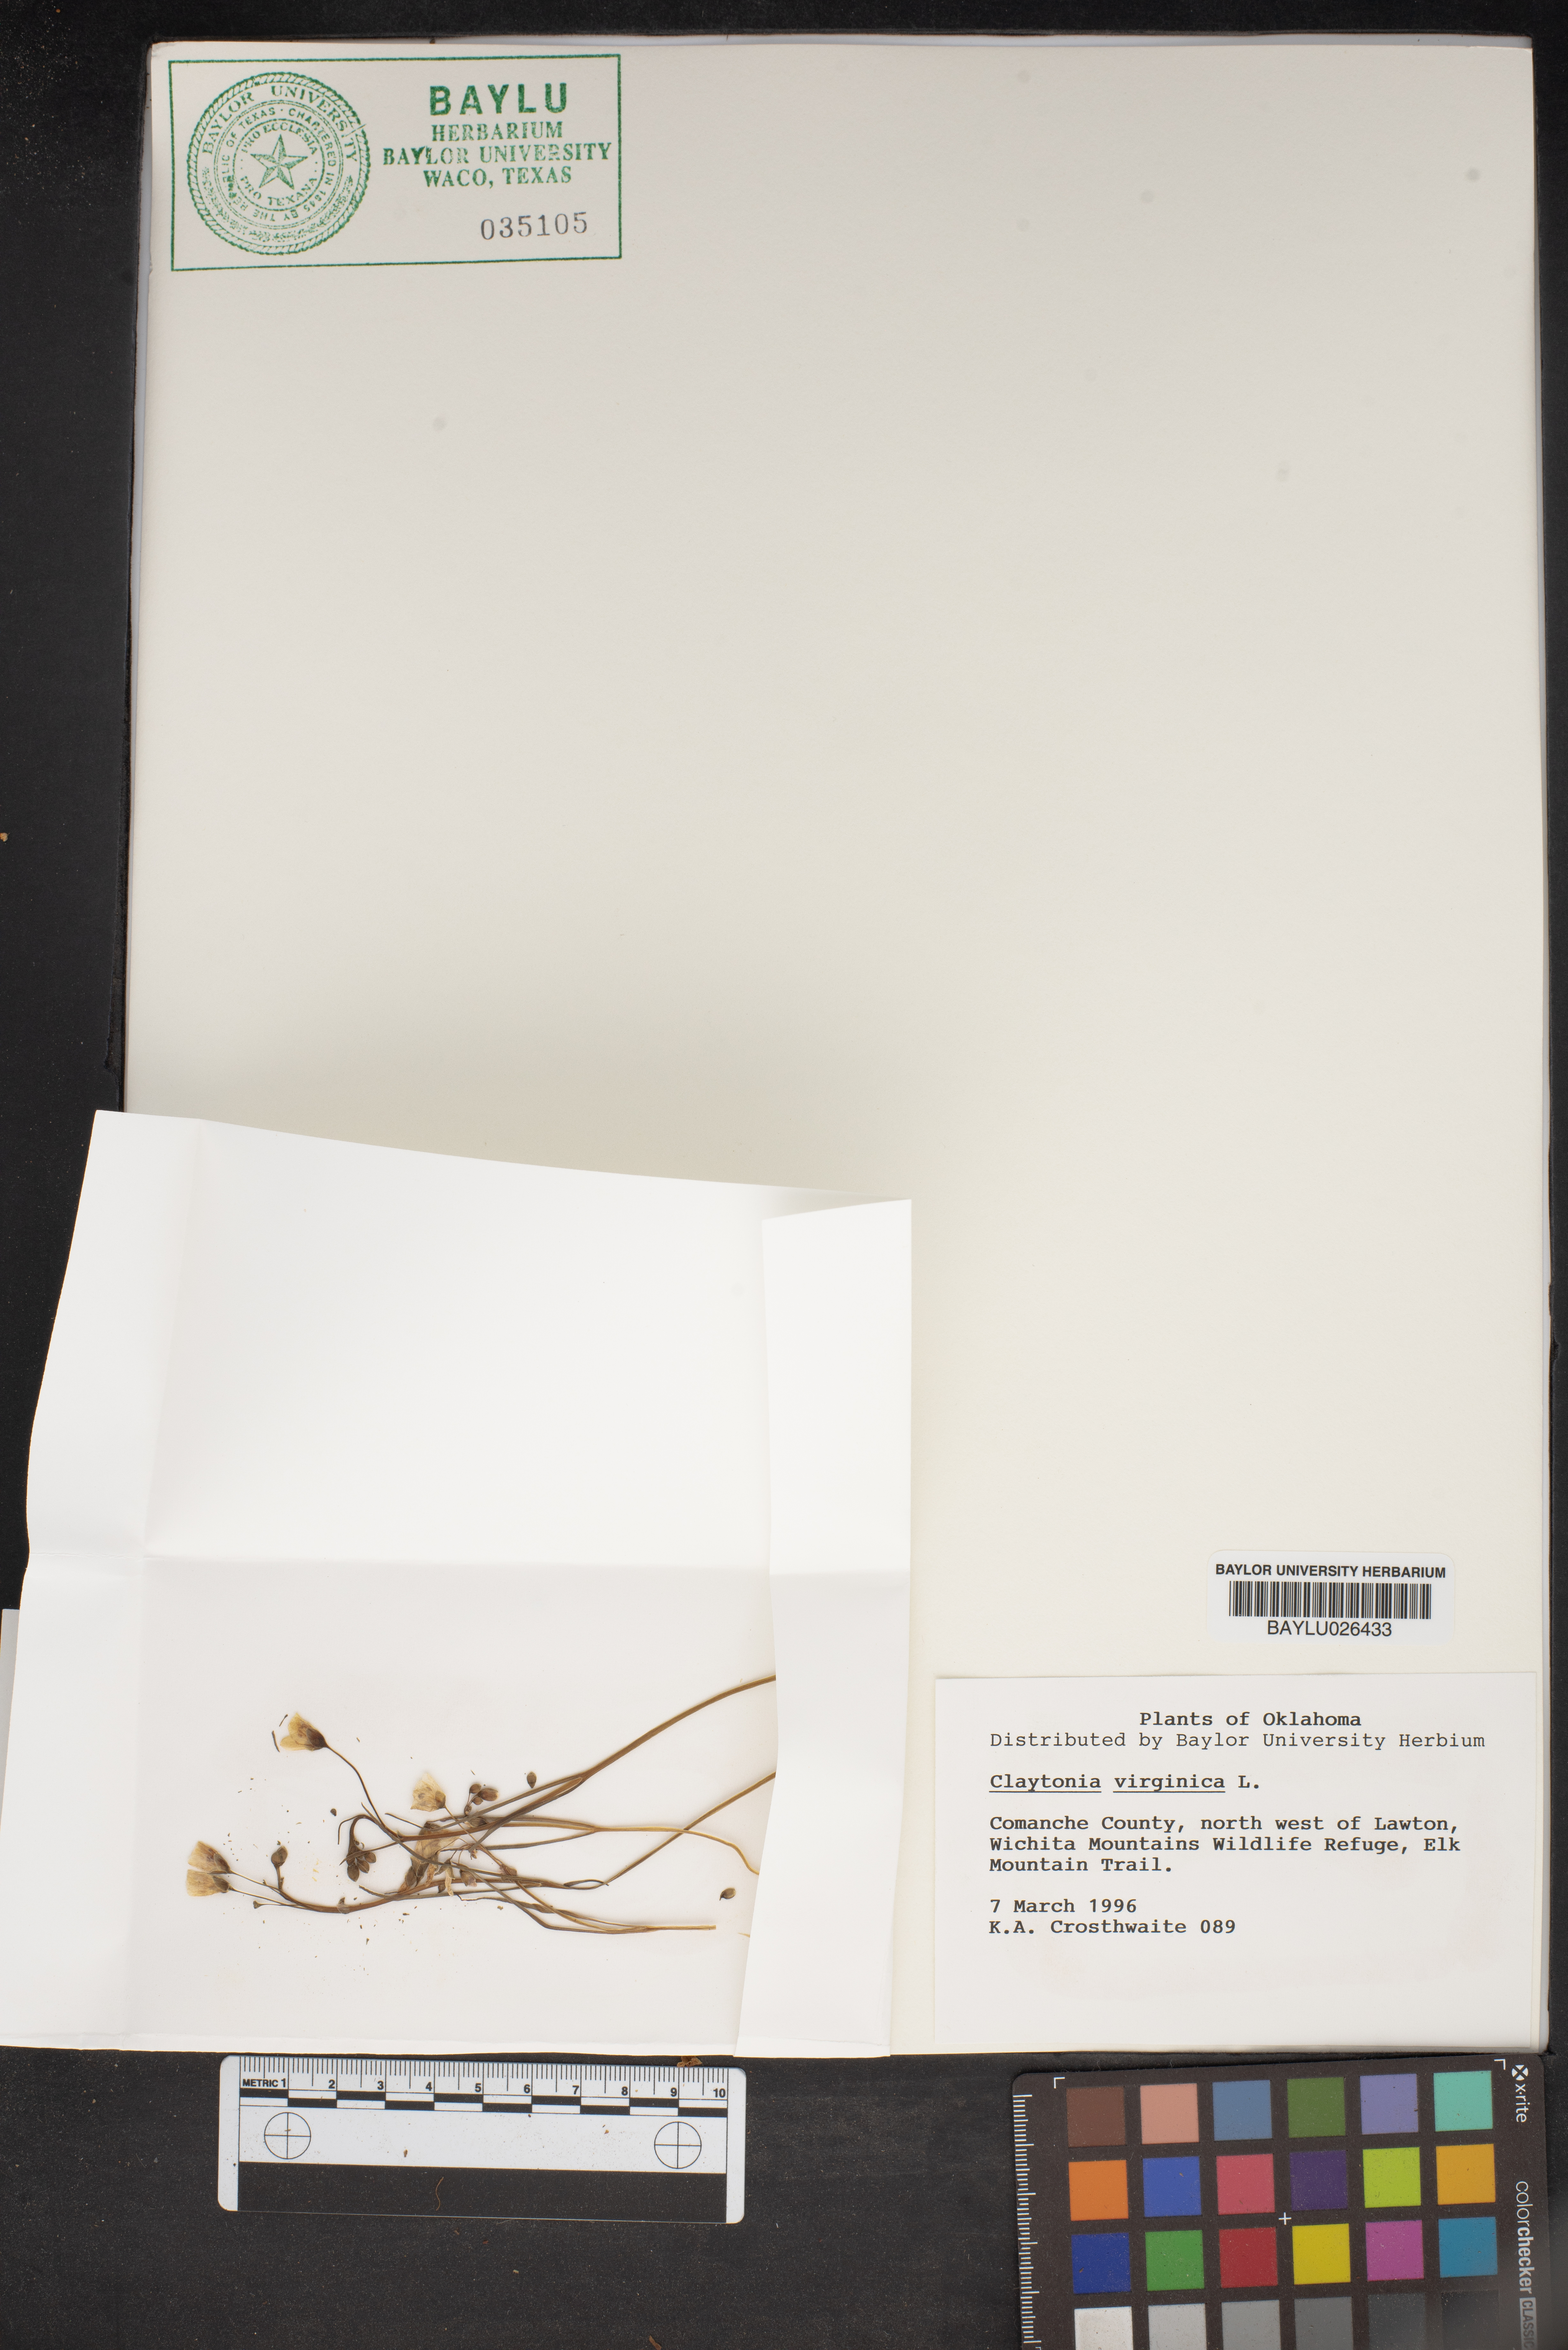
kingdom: Plantae
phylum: Tracheophyta
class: Magnoliopsida
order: Caryophyllales
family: Montiaceae
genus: Claytonia
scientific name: Claytonia virginica
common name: Virginia springbeauty
